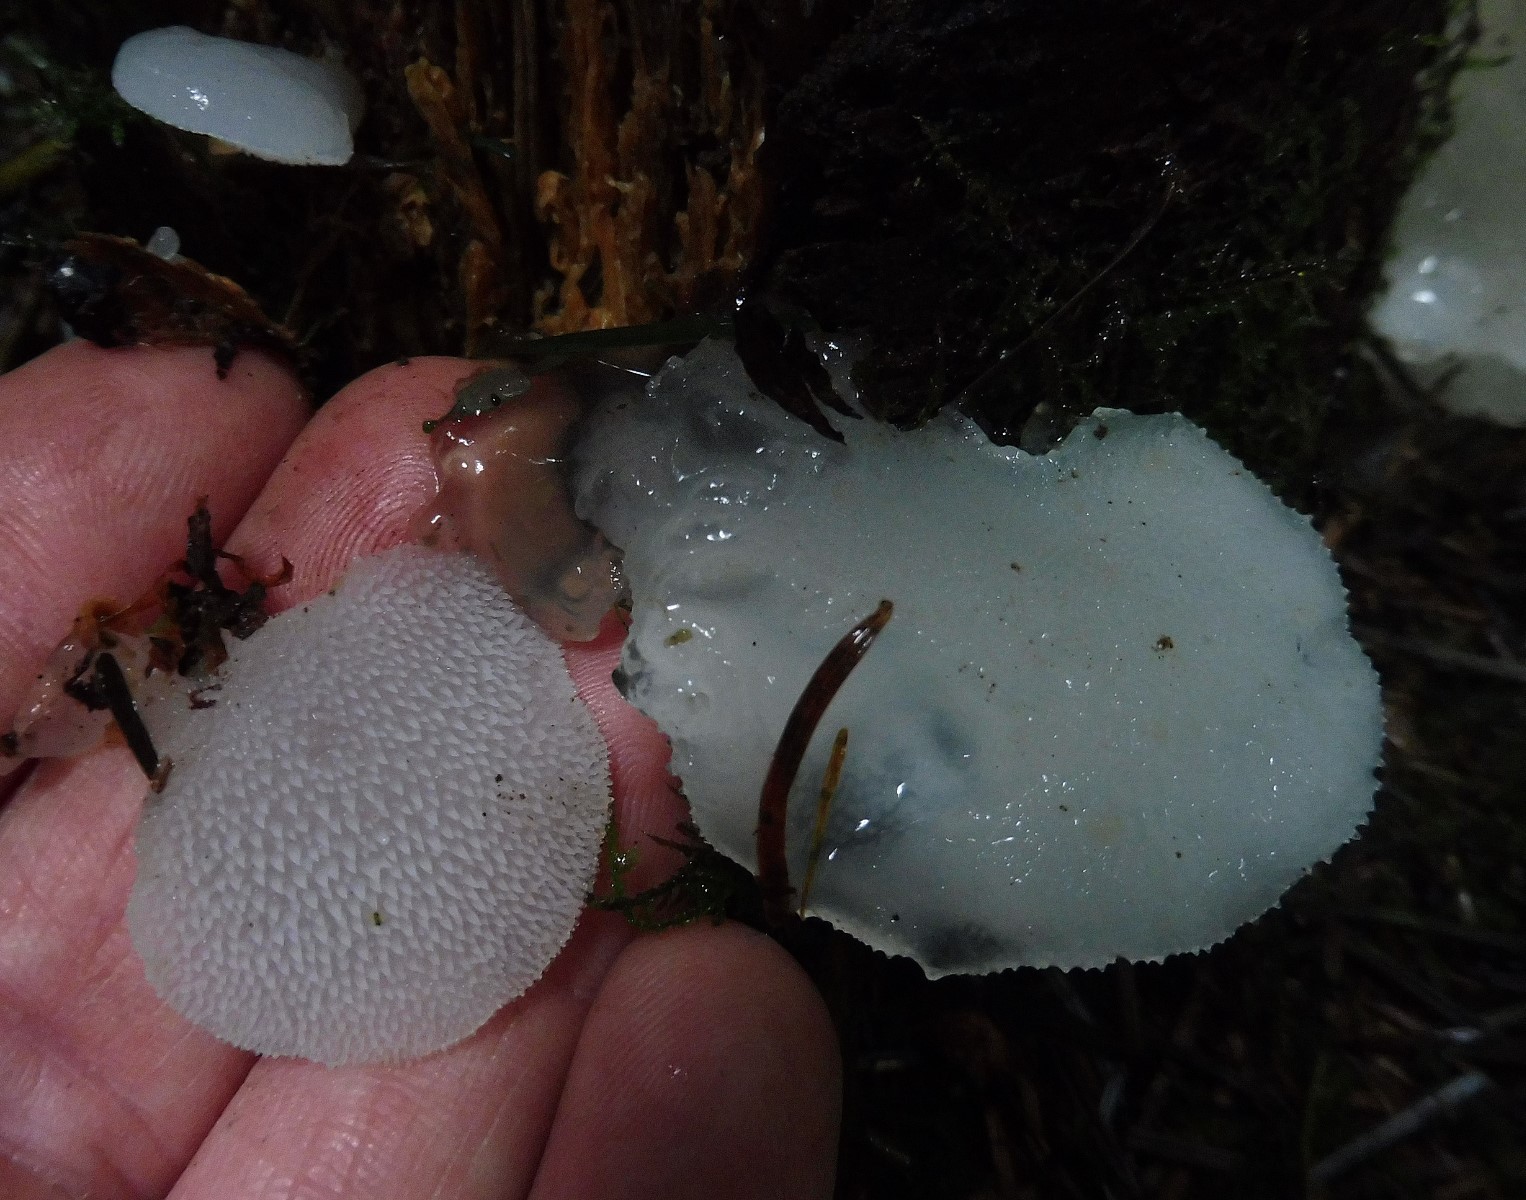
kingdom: Fungi
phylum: Basidiomycota
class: Agaricomycetes
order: Auriculariales
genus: Pseudohydnum
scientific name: Pseudohydnum gelatinosum
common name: bævretand
